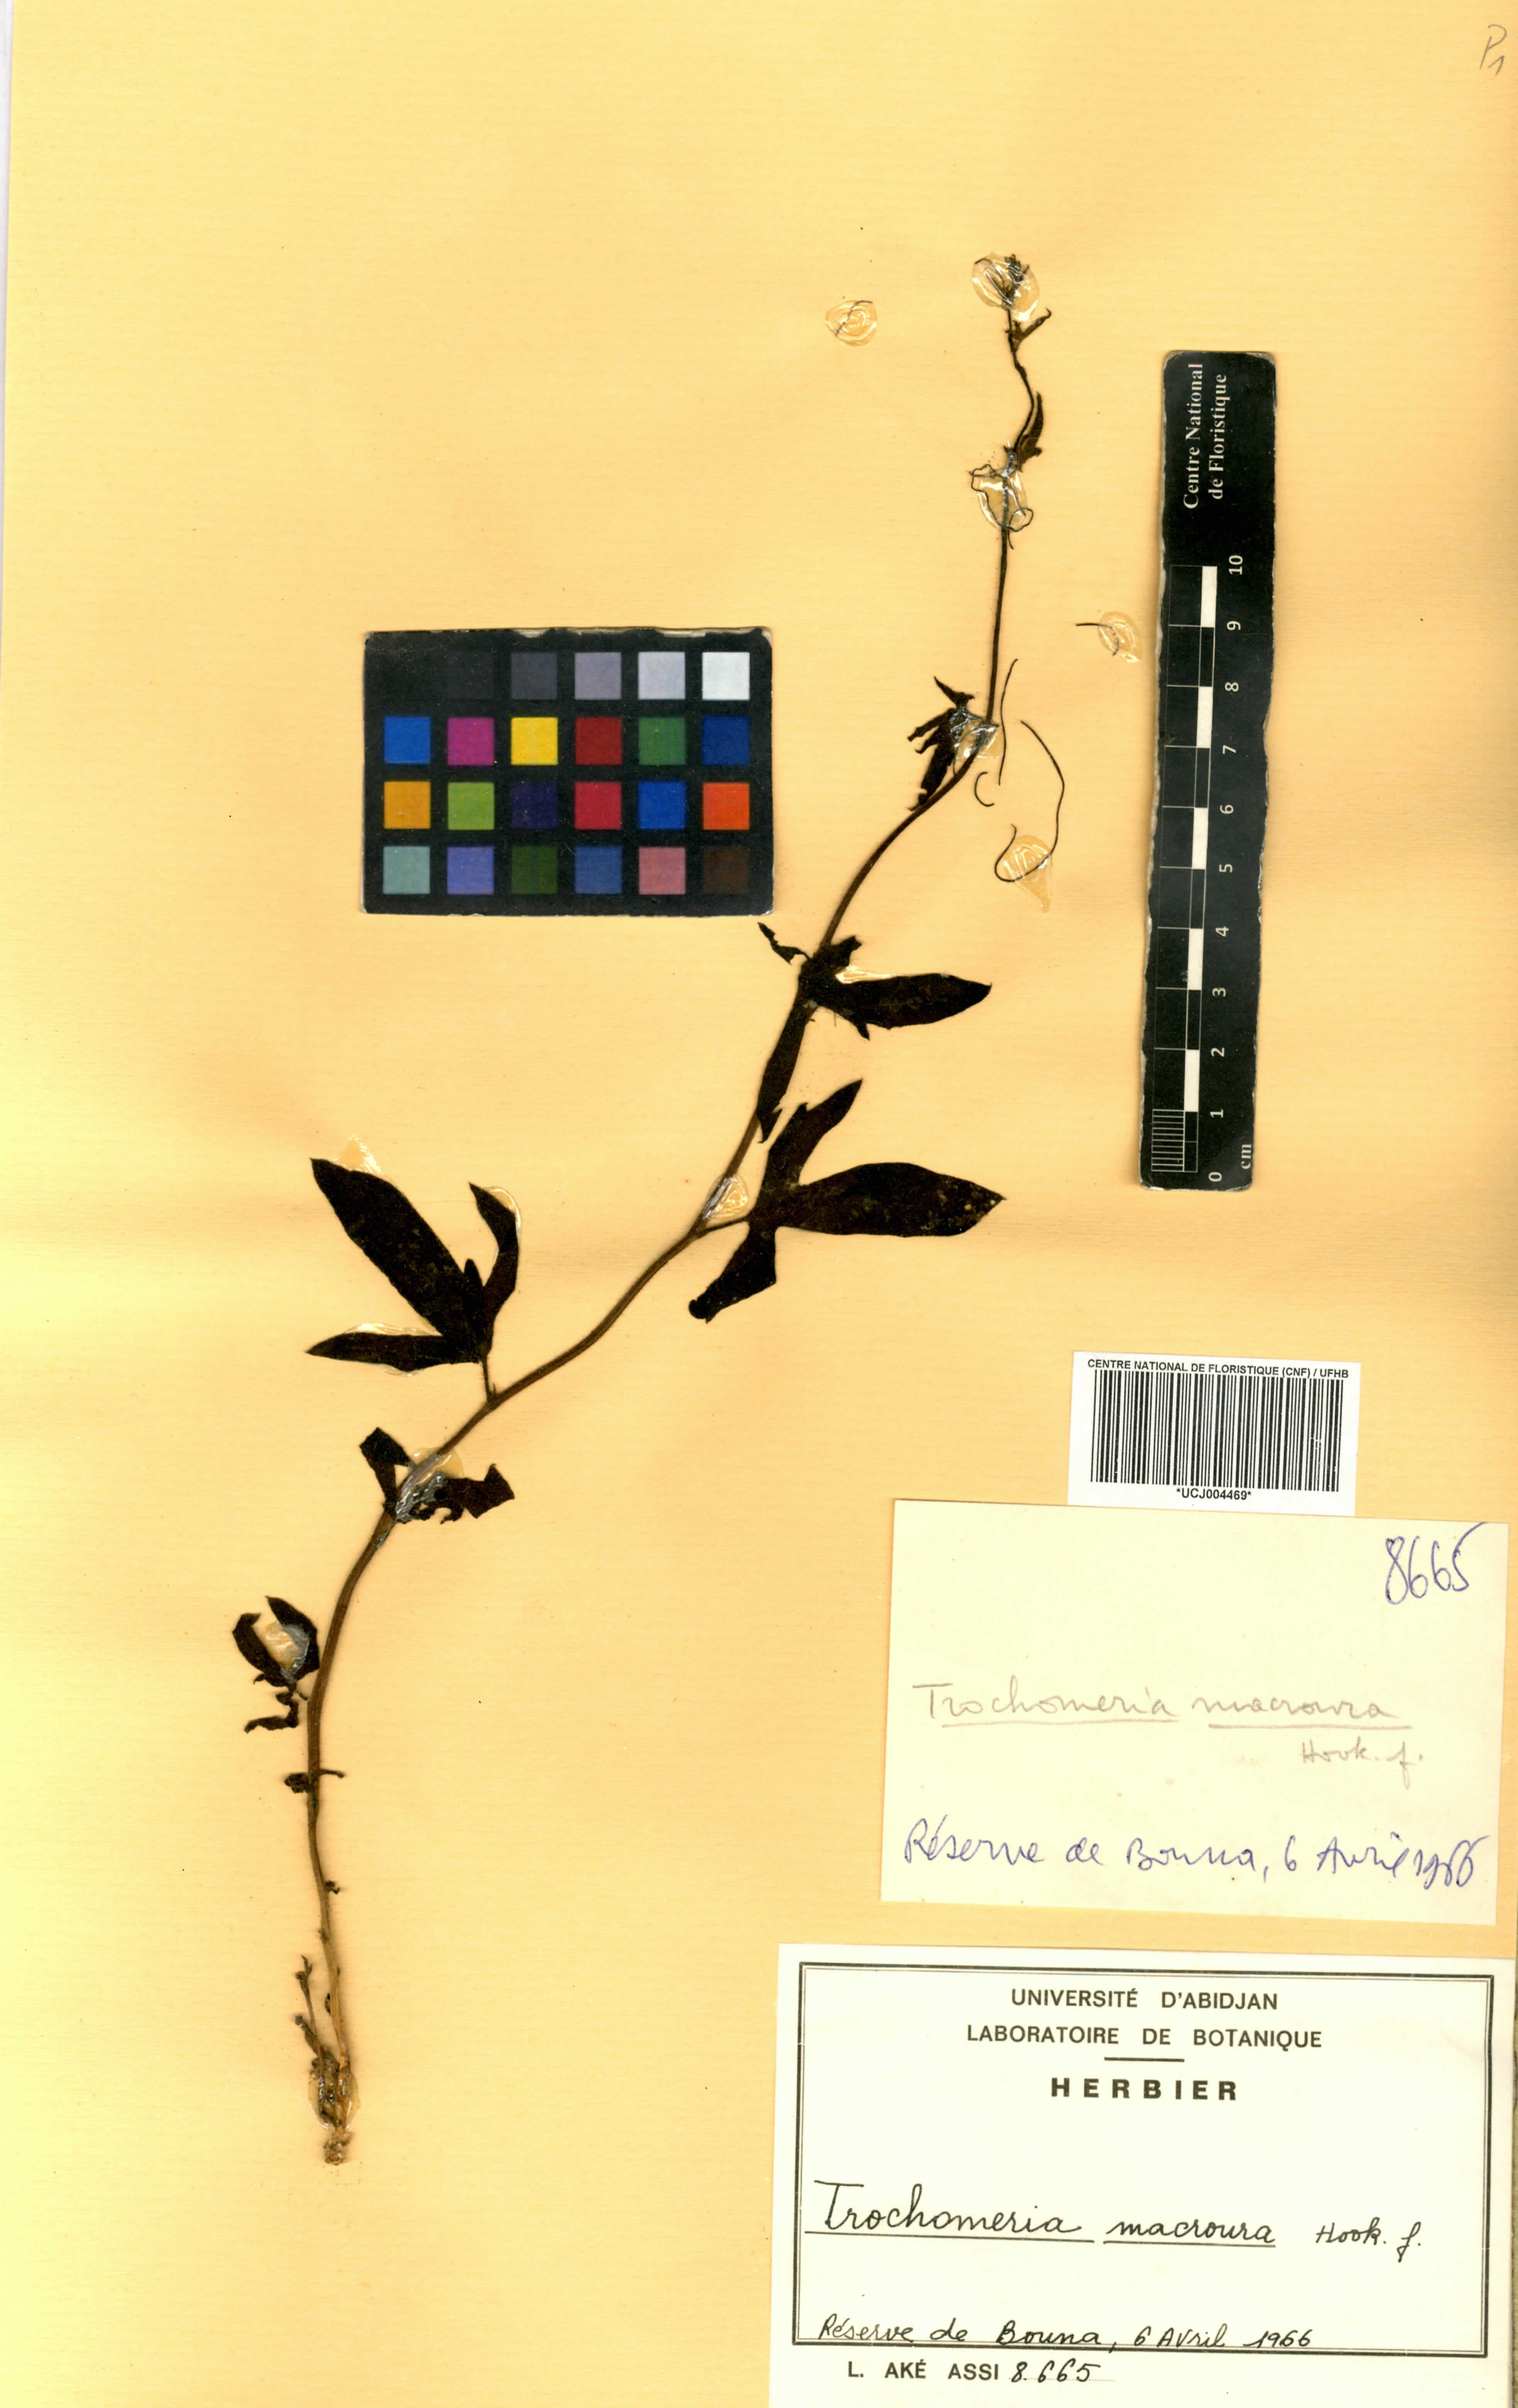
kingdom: Plantae
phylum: Tracheophyta
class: Magnoliopsida
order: Cucurbitales
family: Cucurbitaceae
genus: Trochomeria
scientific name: Trochomeria macrocarpa
